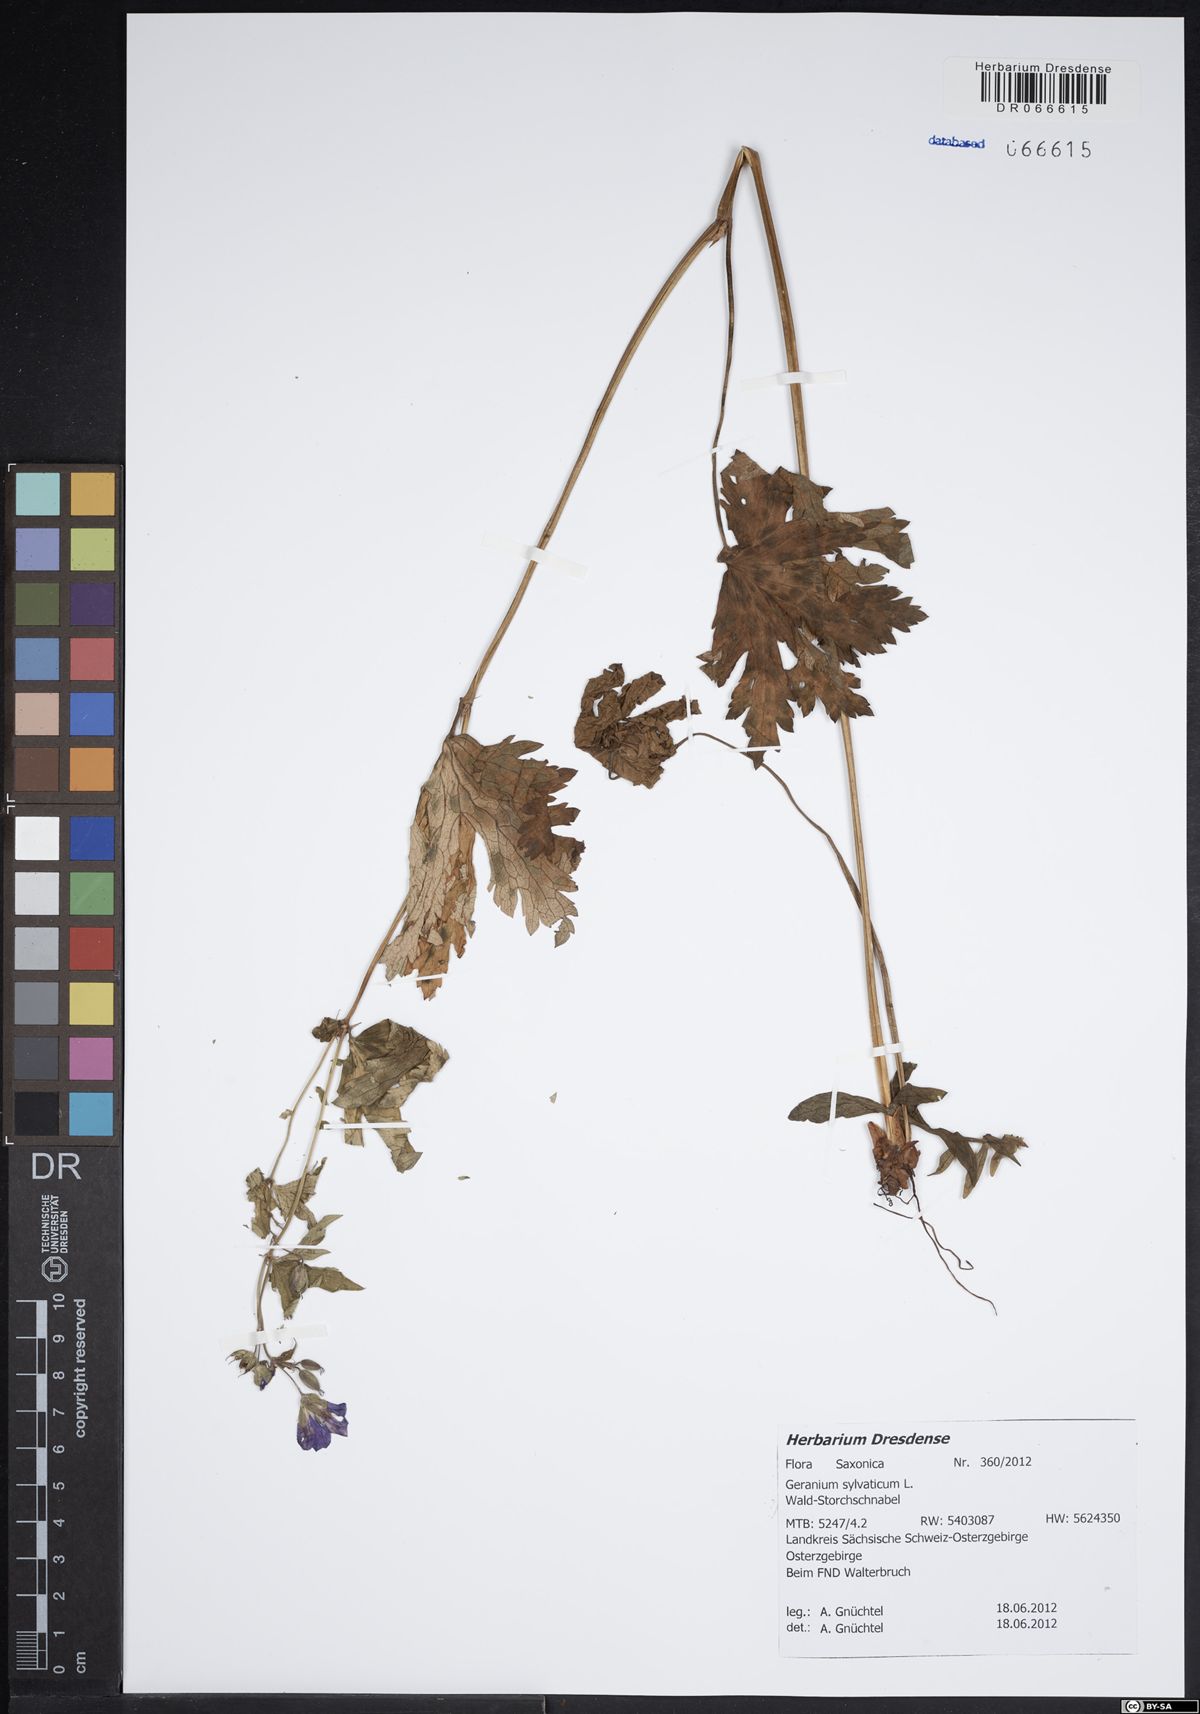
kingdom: Plantae
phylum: Tracheophyta
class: Magnoliopsida
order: Geraniales
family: Geraniaceae
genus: Geranium
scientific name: Geranium sylvaticum
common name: Wood crane's-bill
